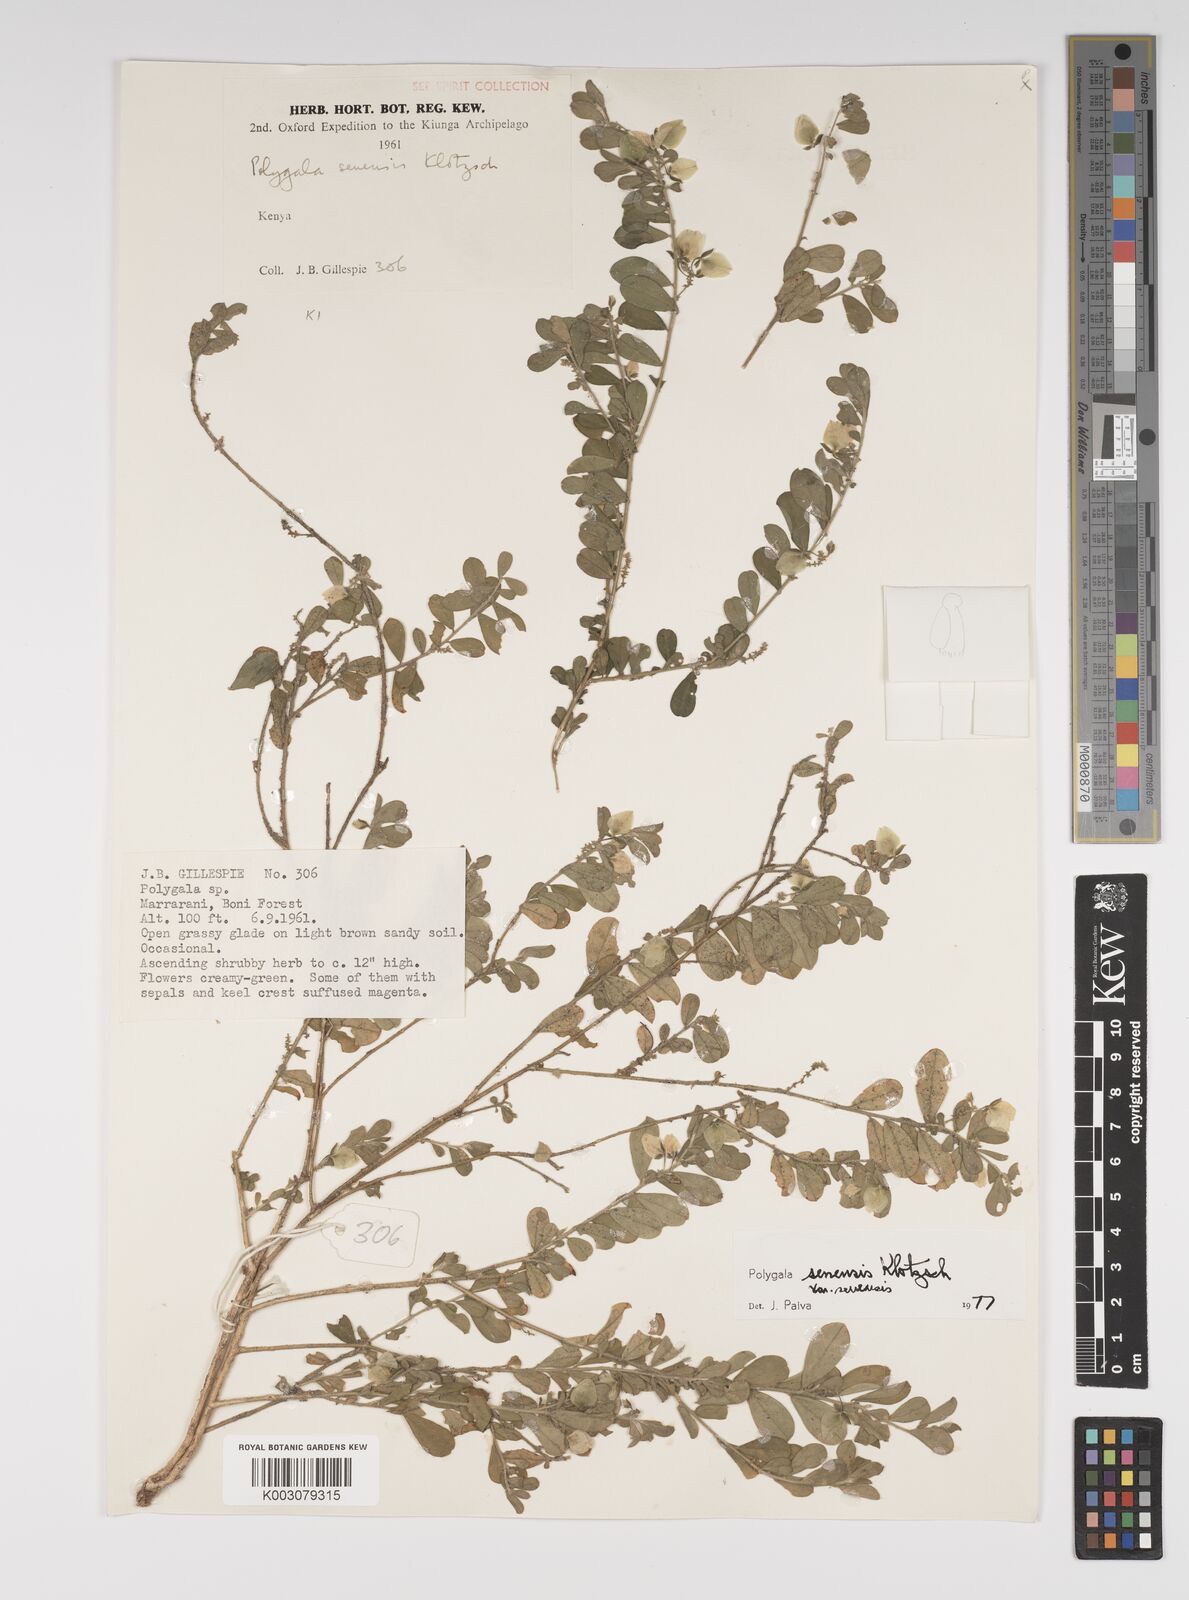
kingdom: Plantae
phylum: Tracheophyta
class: Magnoliopsida
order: Fabales
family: Polygalaceae
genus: Polygala
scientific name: Polygala senensis
